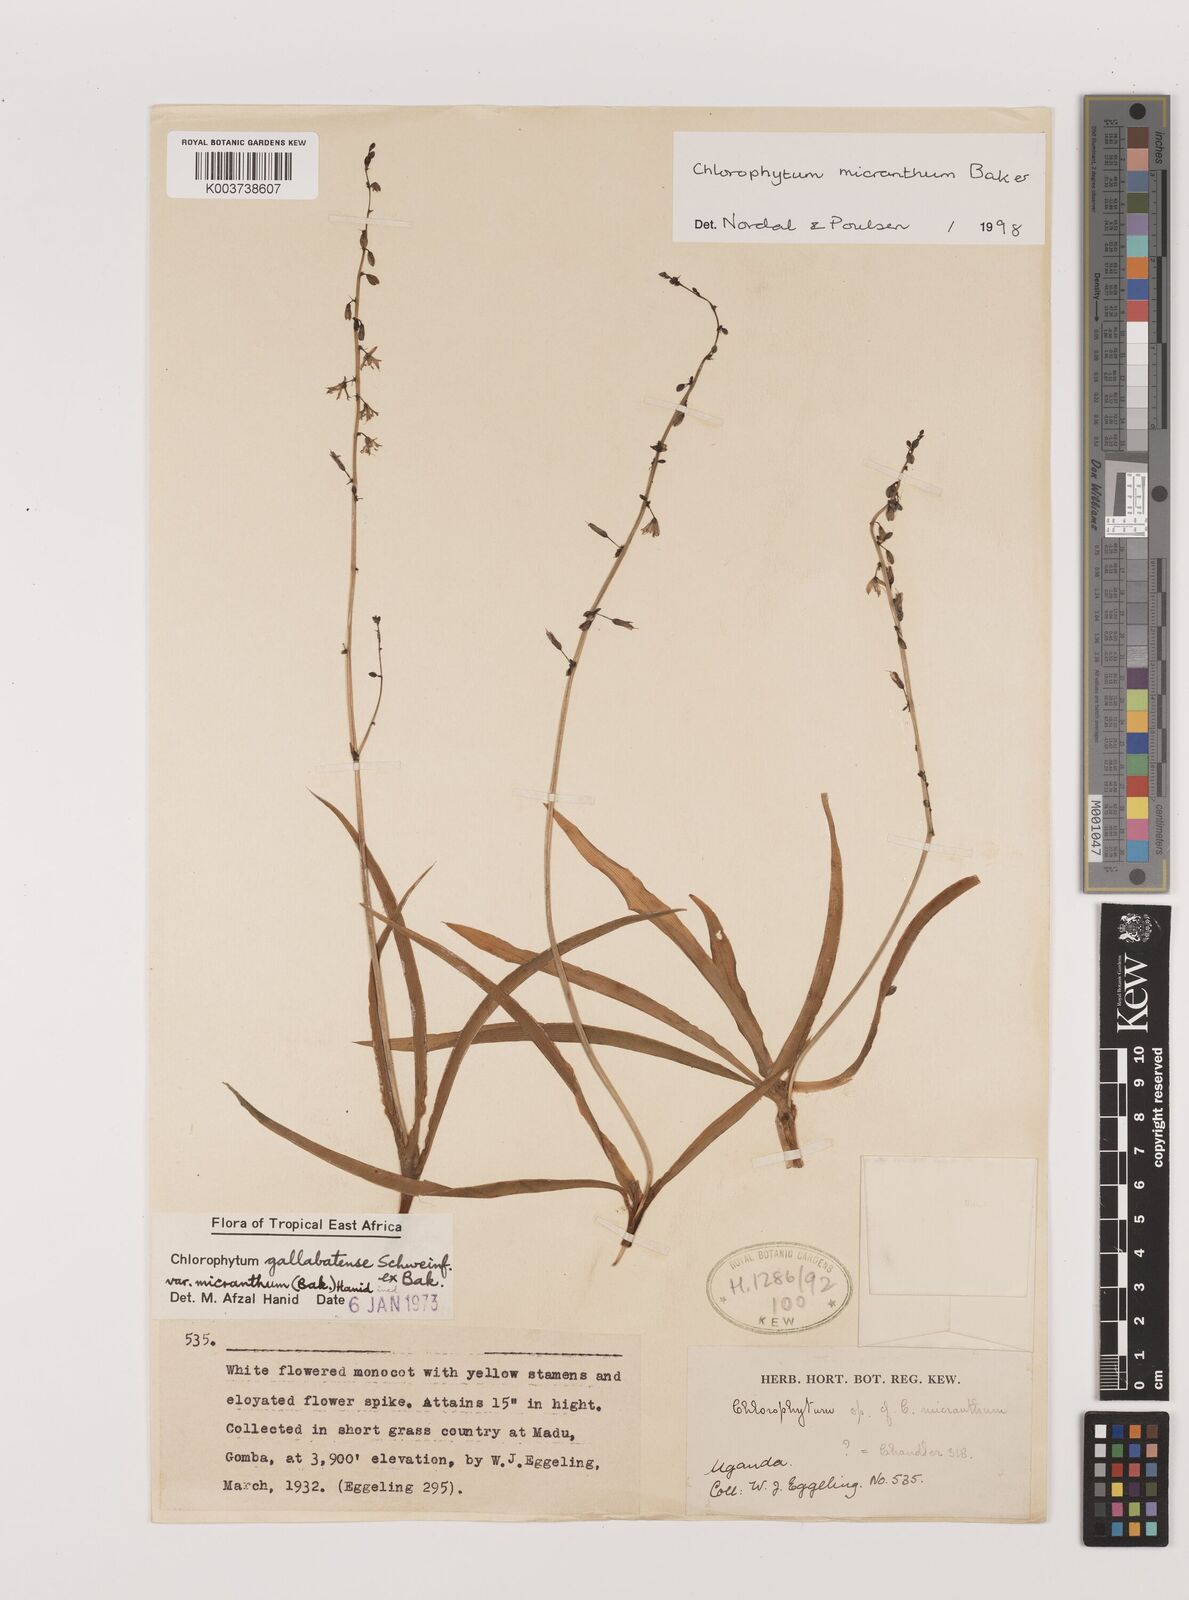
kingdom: Plantae
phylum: Tracheophyta
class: Liliopsida
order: Asparagales
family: Asparagaceae
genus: Chlorophytum
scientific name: Chlorophytum gallabatense
